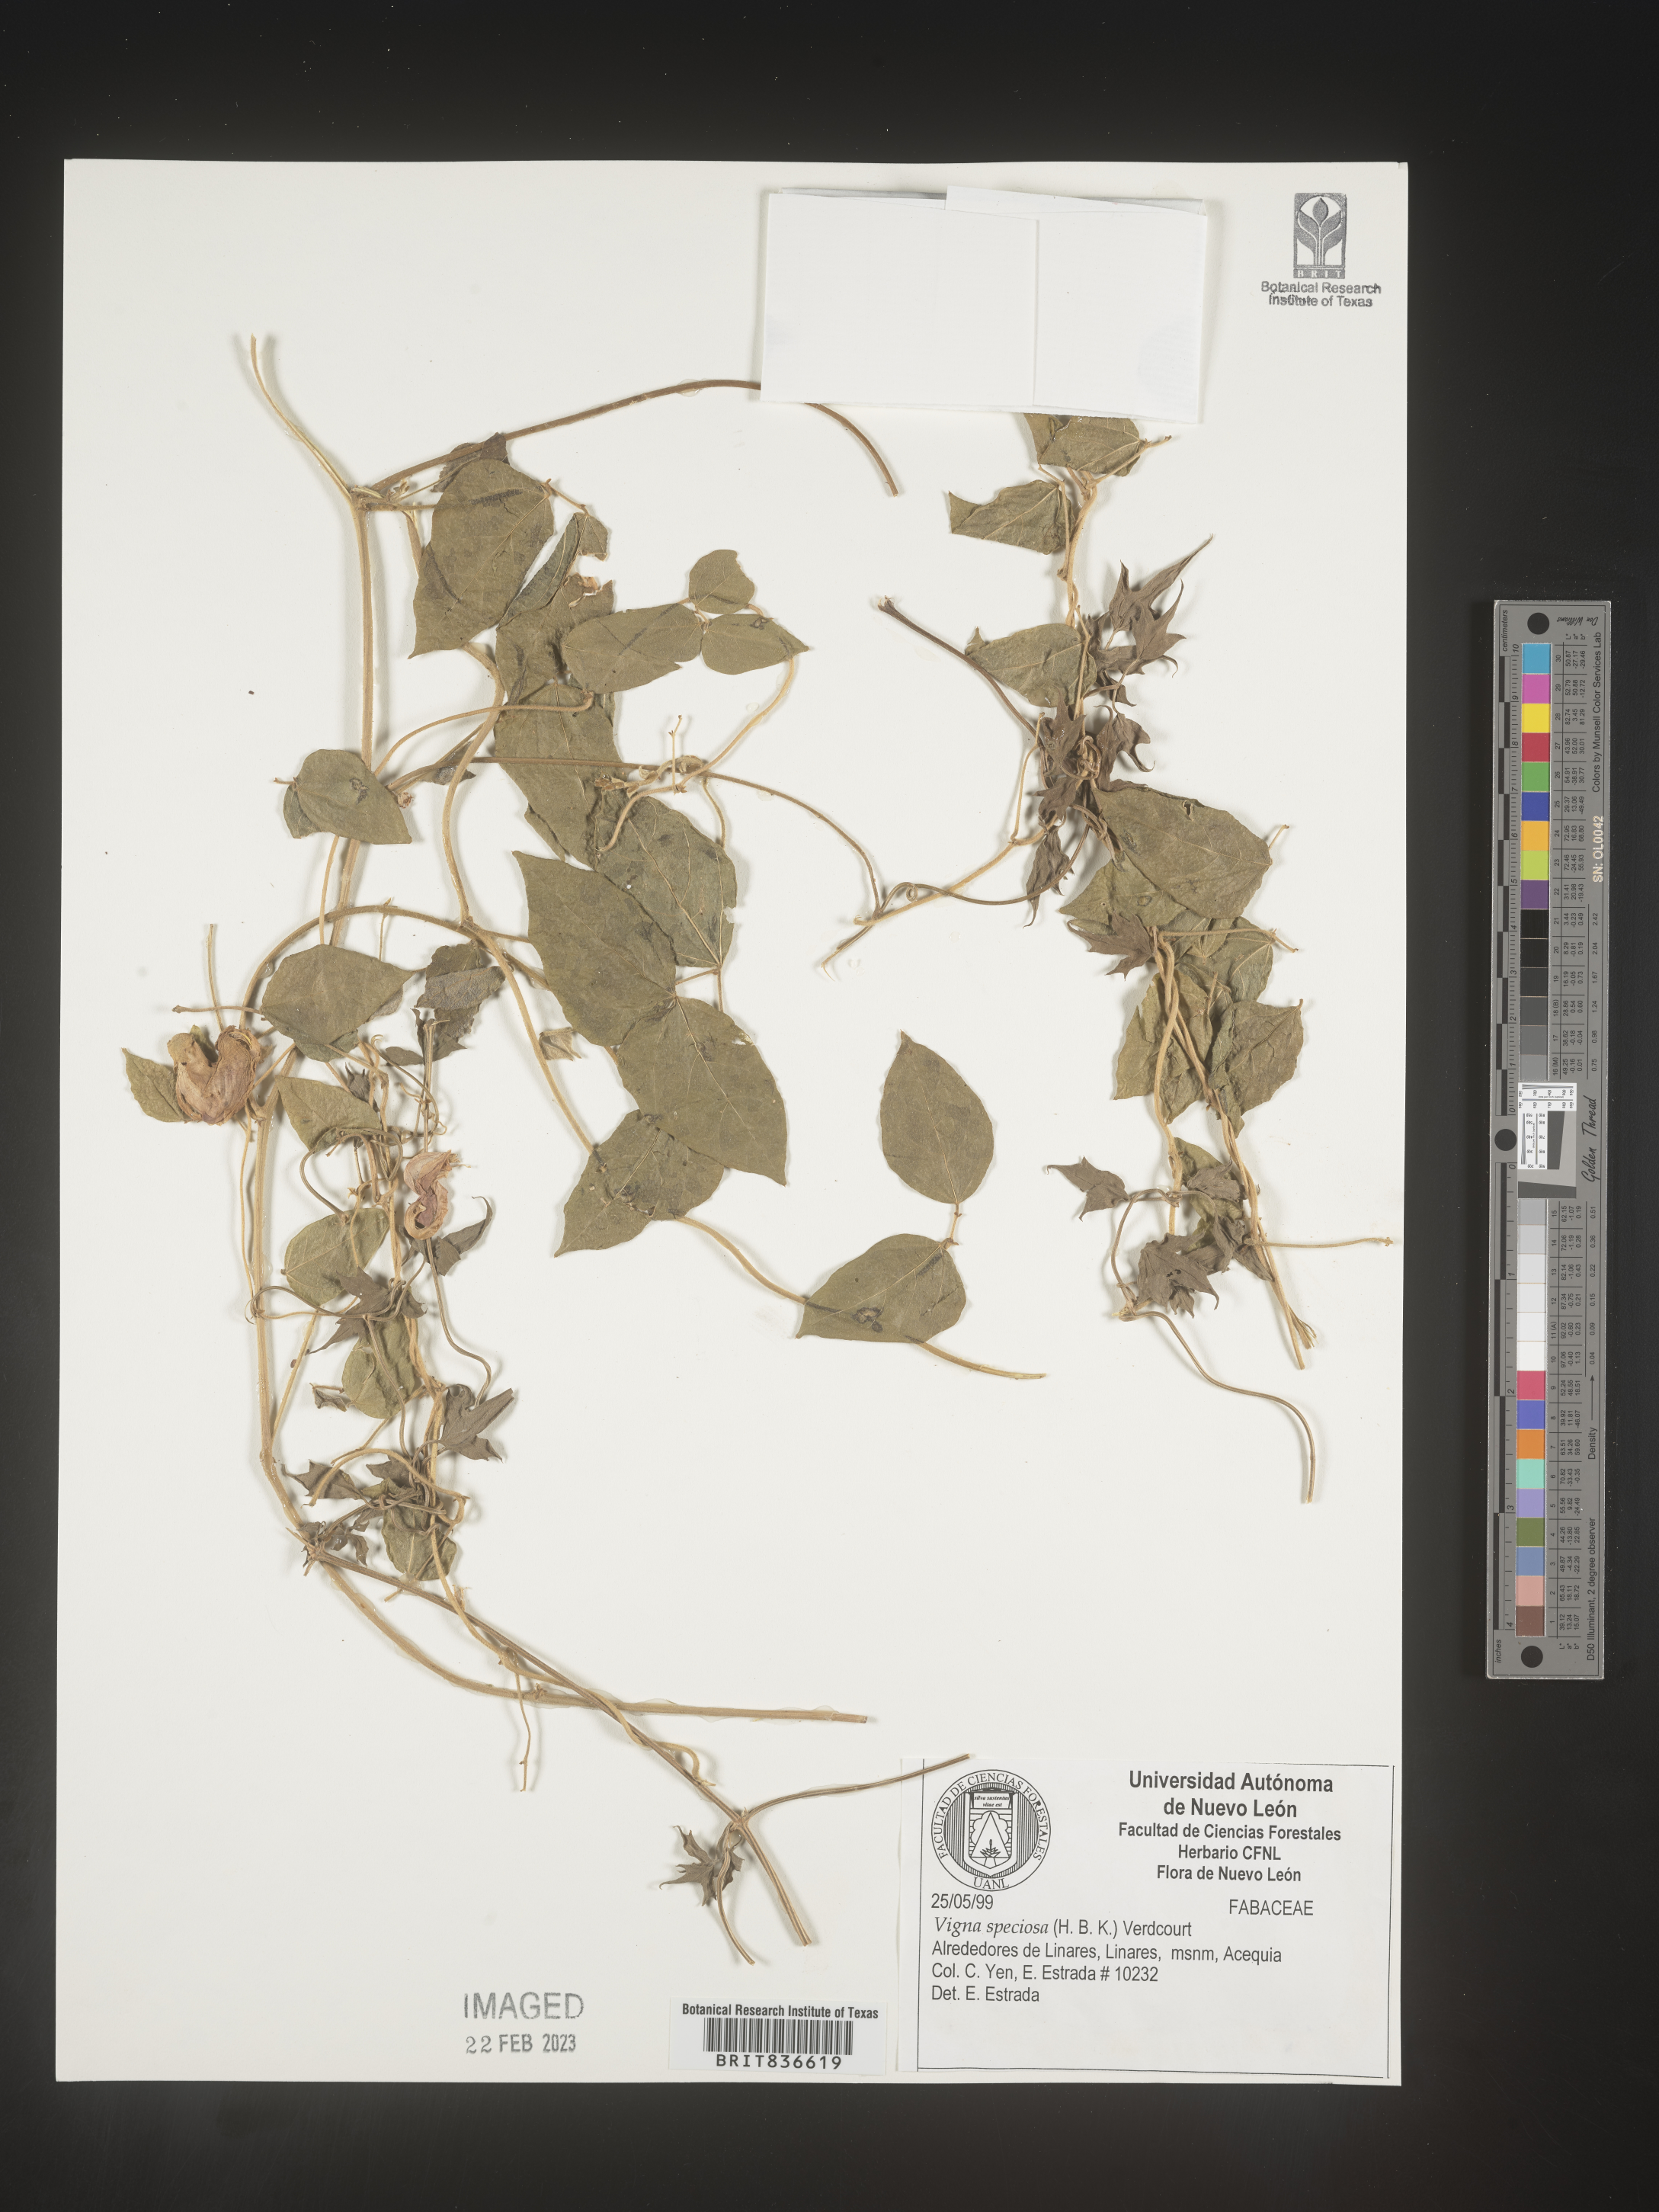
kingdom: Plantae
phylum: Tracheophyta
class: Magnoliopsida
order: Fabales
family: Fabaceae
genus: Vigna
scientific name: Vigna
